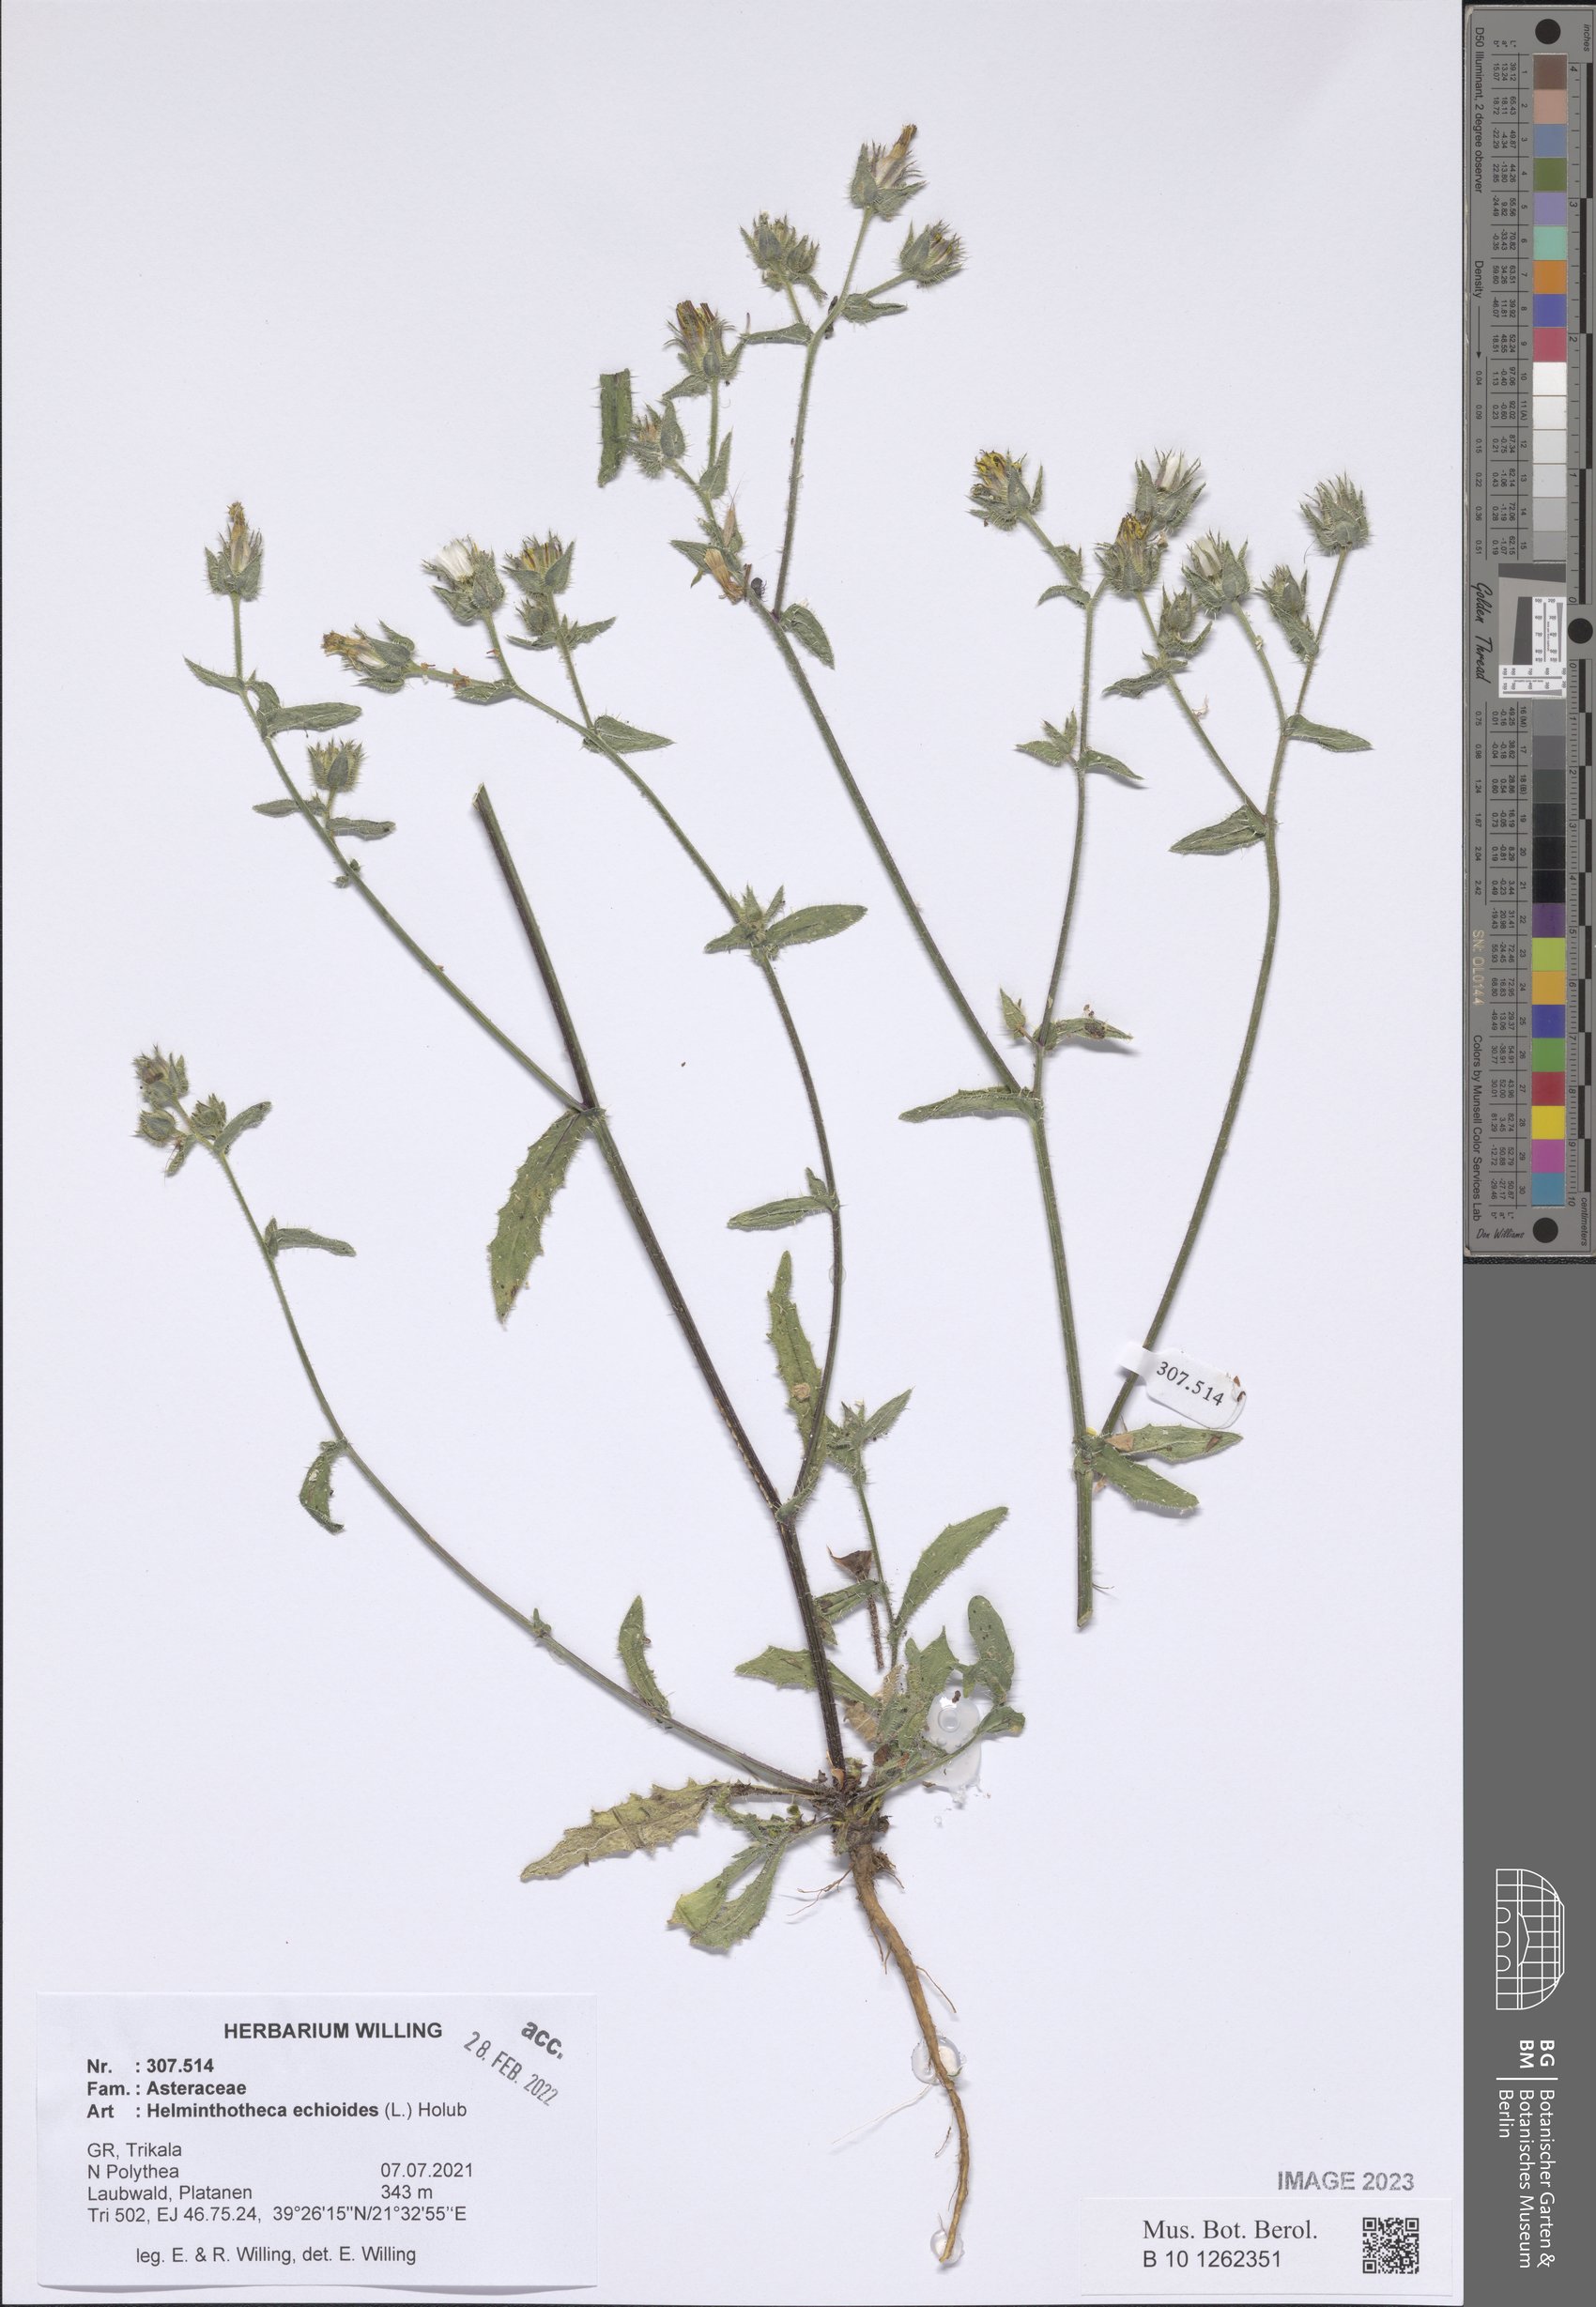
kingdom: Plantae
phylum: Tracheophyta
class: Magnoliopsida
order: Asterales
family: Asteraceae
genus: Helminthotheca
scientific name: Helminthotheca echioides
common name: Ox-tongue
